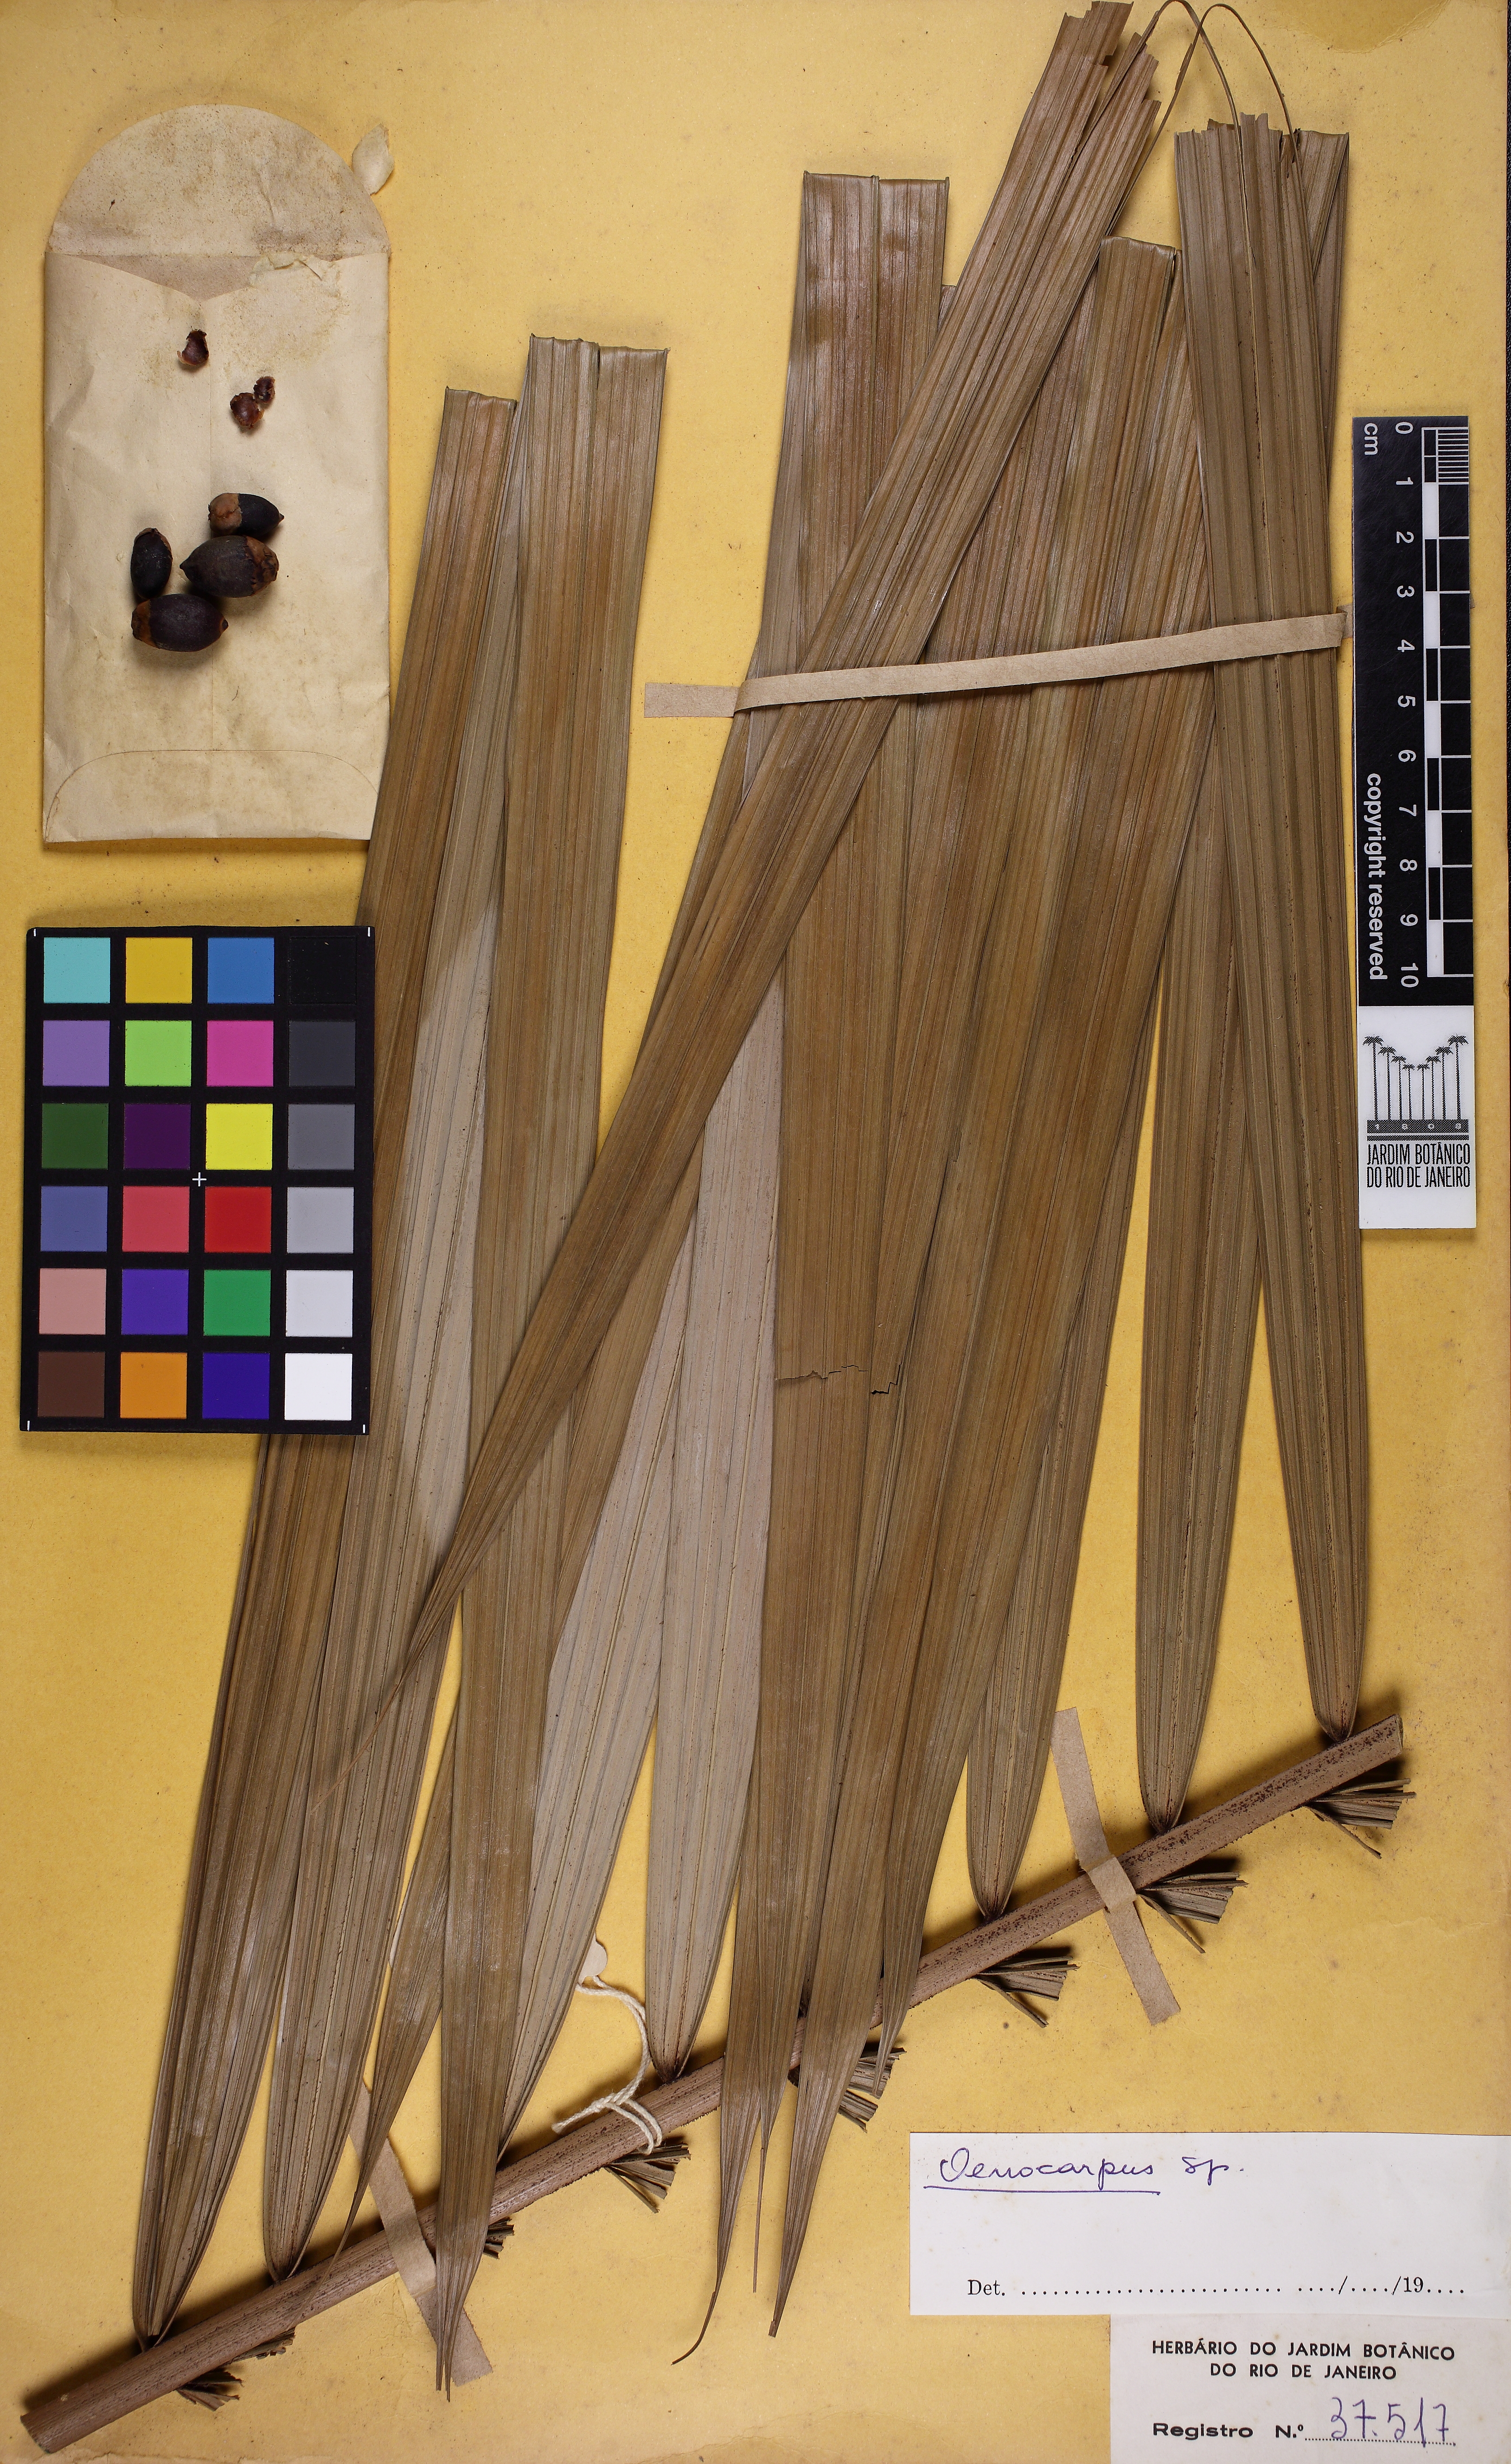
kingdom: Plantae
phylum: Tracheophyta
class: Liliopsida
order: Arecales
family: Arecaceae
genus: Oenocarpus
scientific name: Oenocarpus
